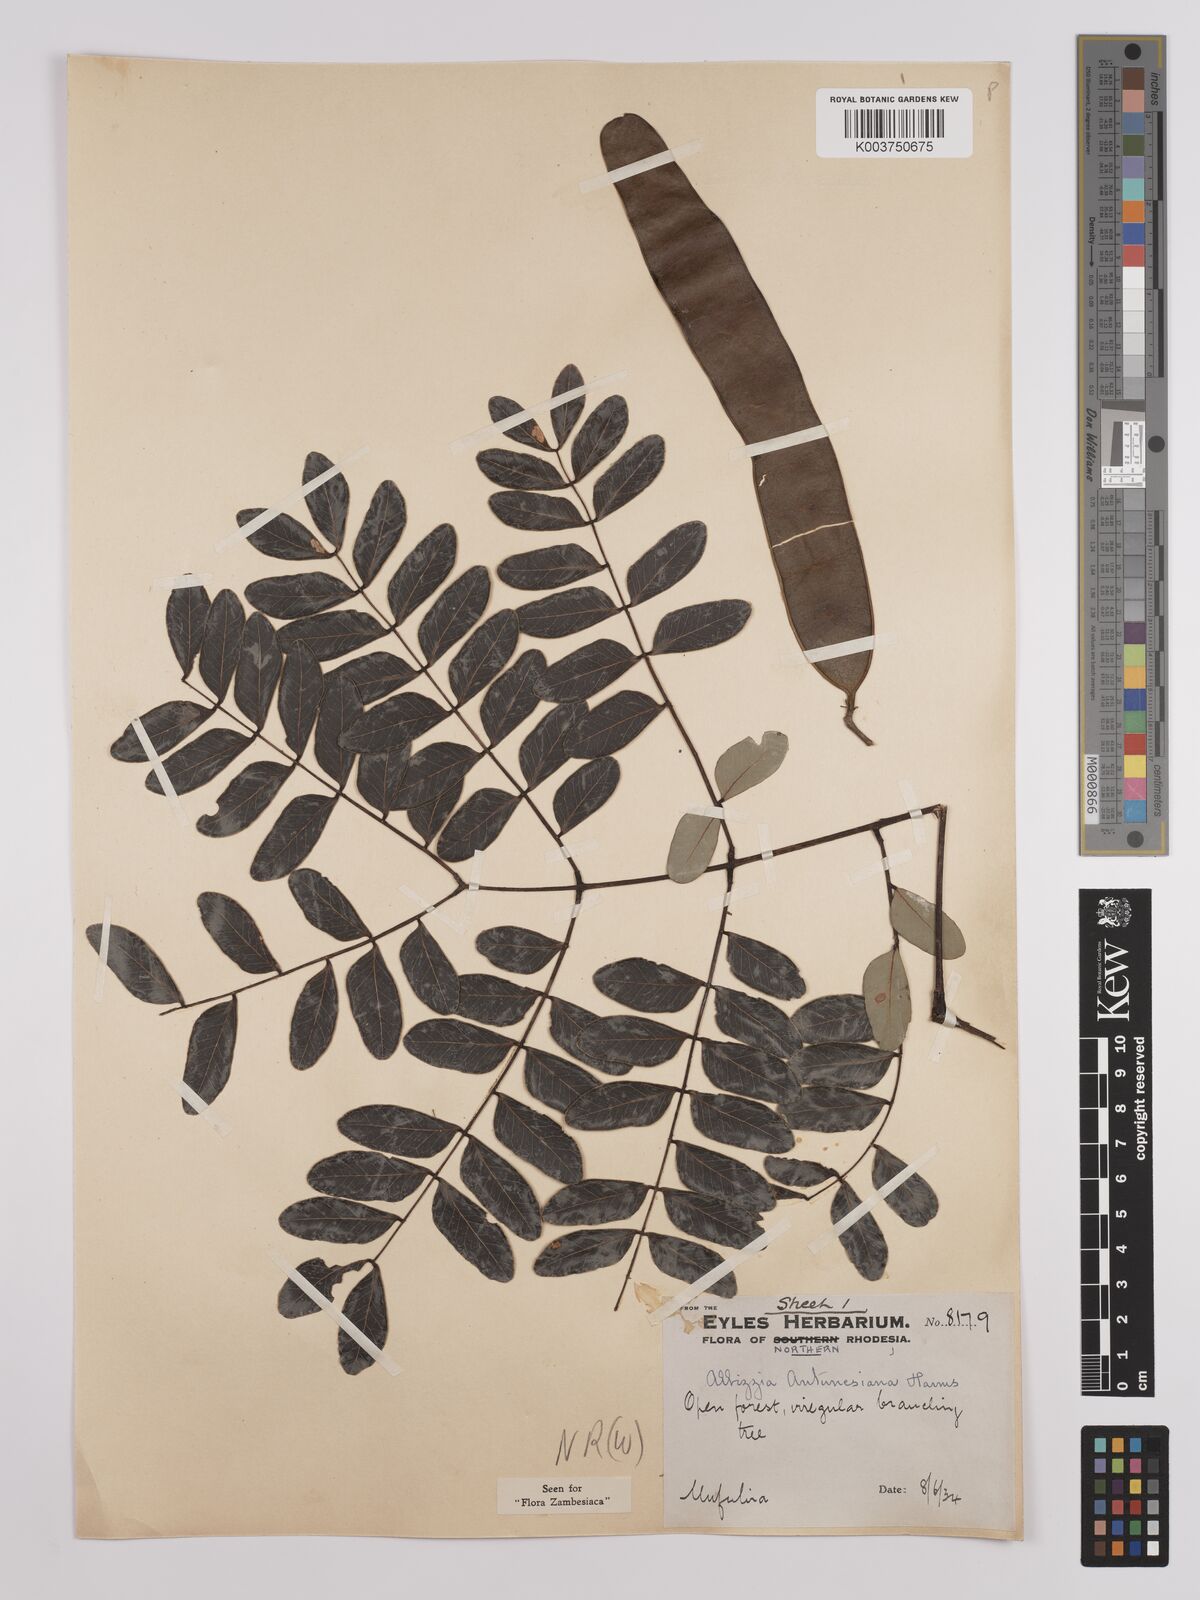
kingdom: Plantae
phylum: Tracheophyta
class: Magnoliopsida
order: Fabales
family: Fabaceae
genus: Albizia
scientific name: Albizia antunesiana
